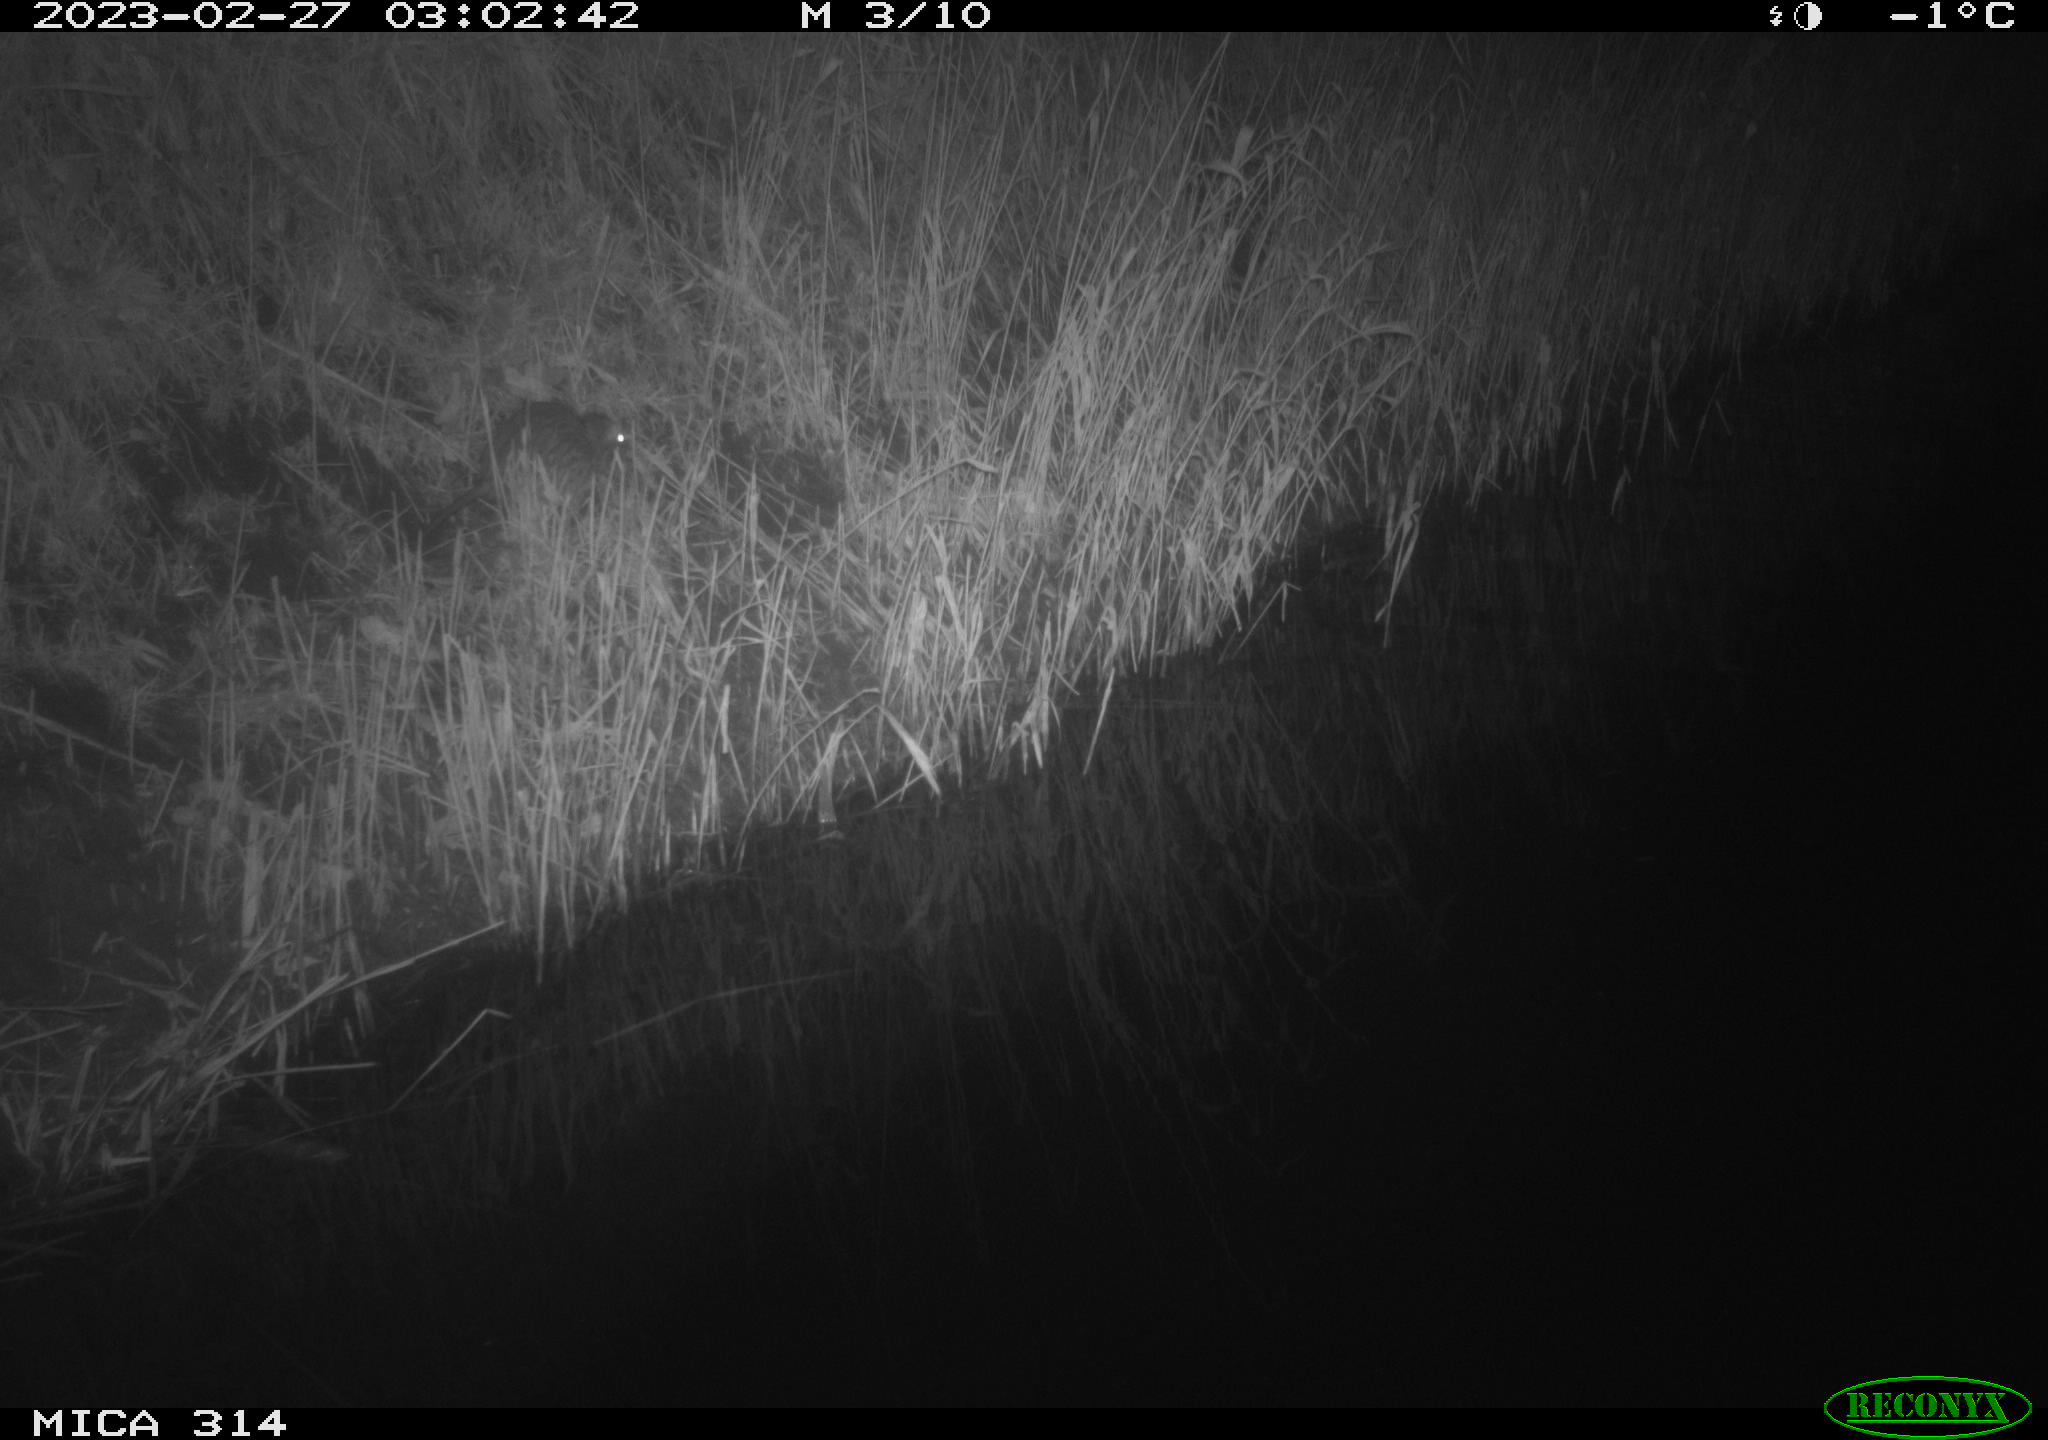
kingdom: Animalia
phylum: Chordata
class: Mammalia
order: Rodentia
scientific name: Rodentia
